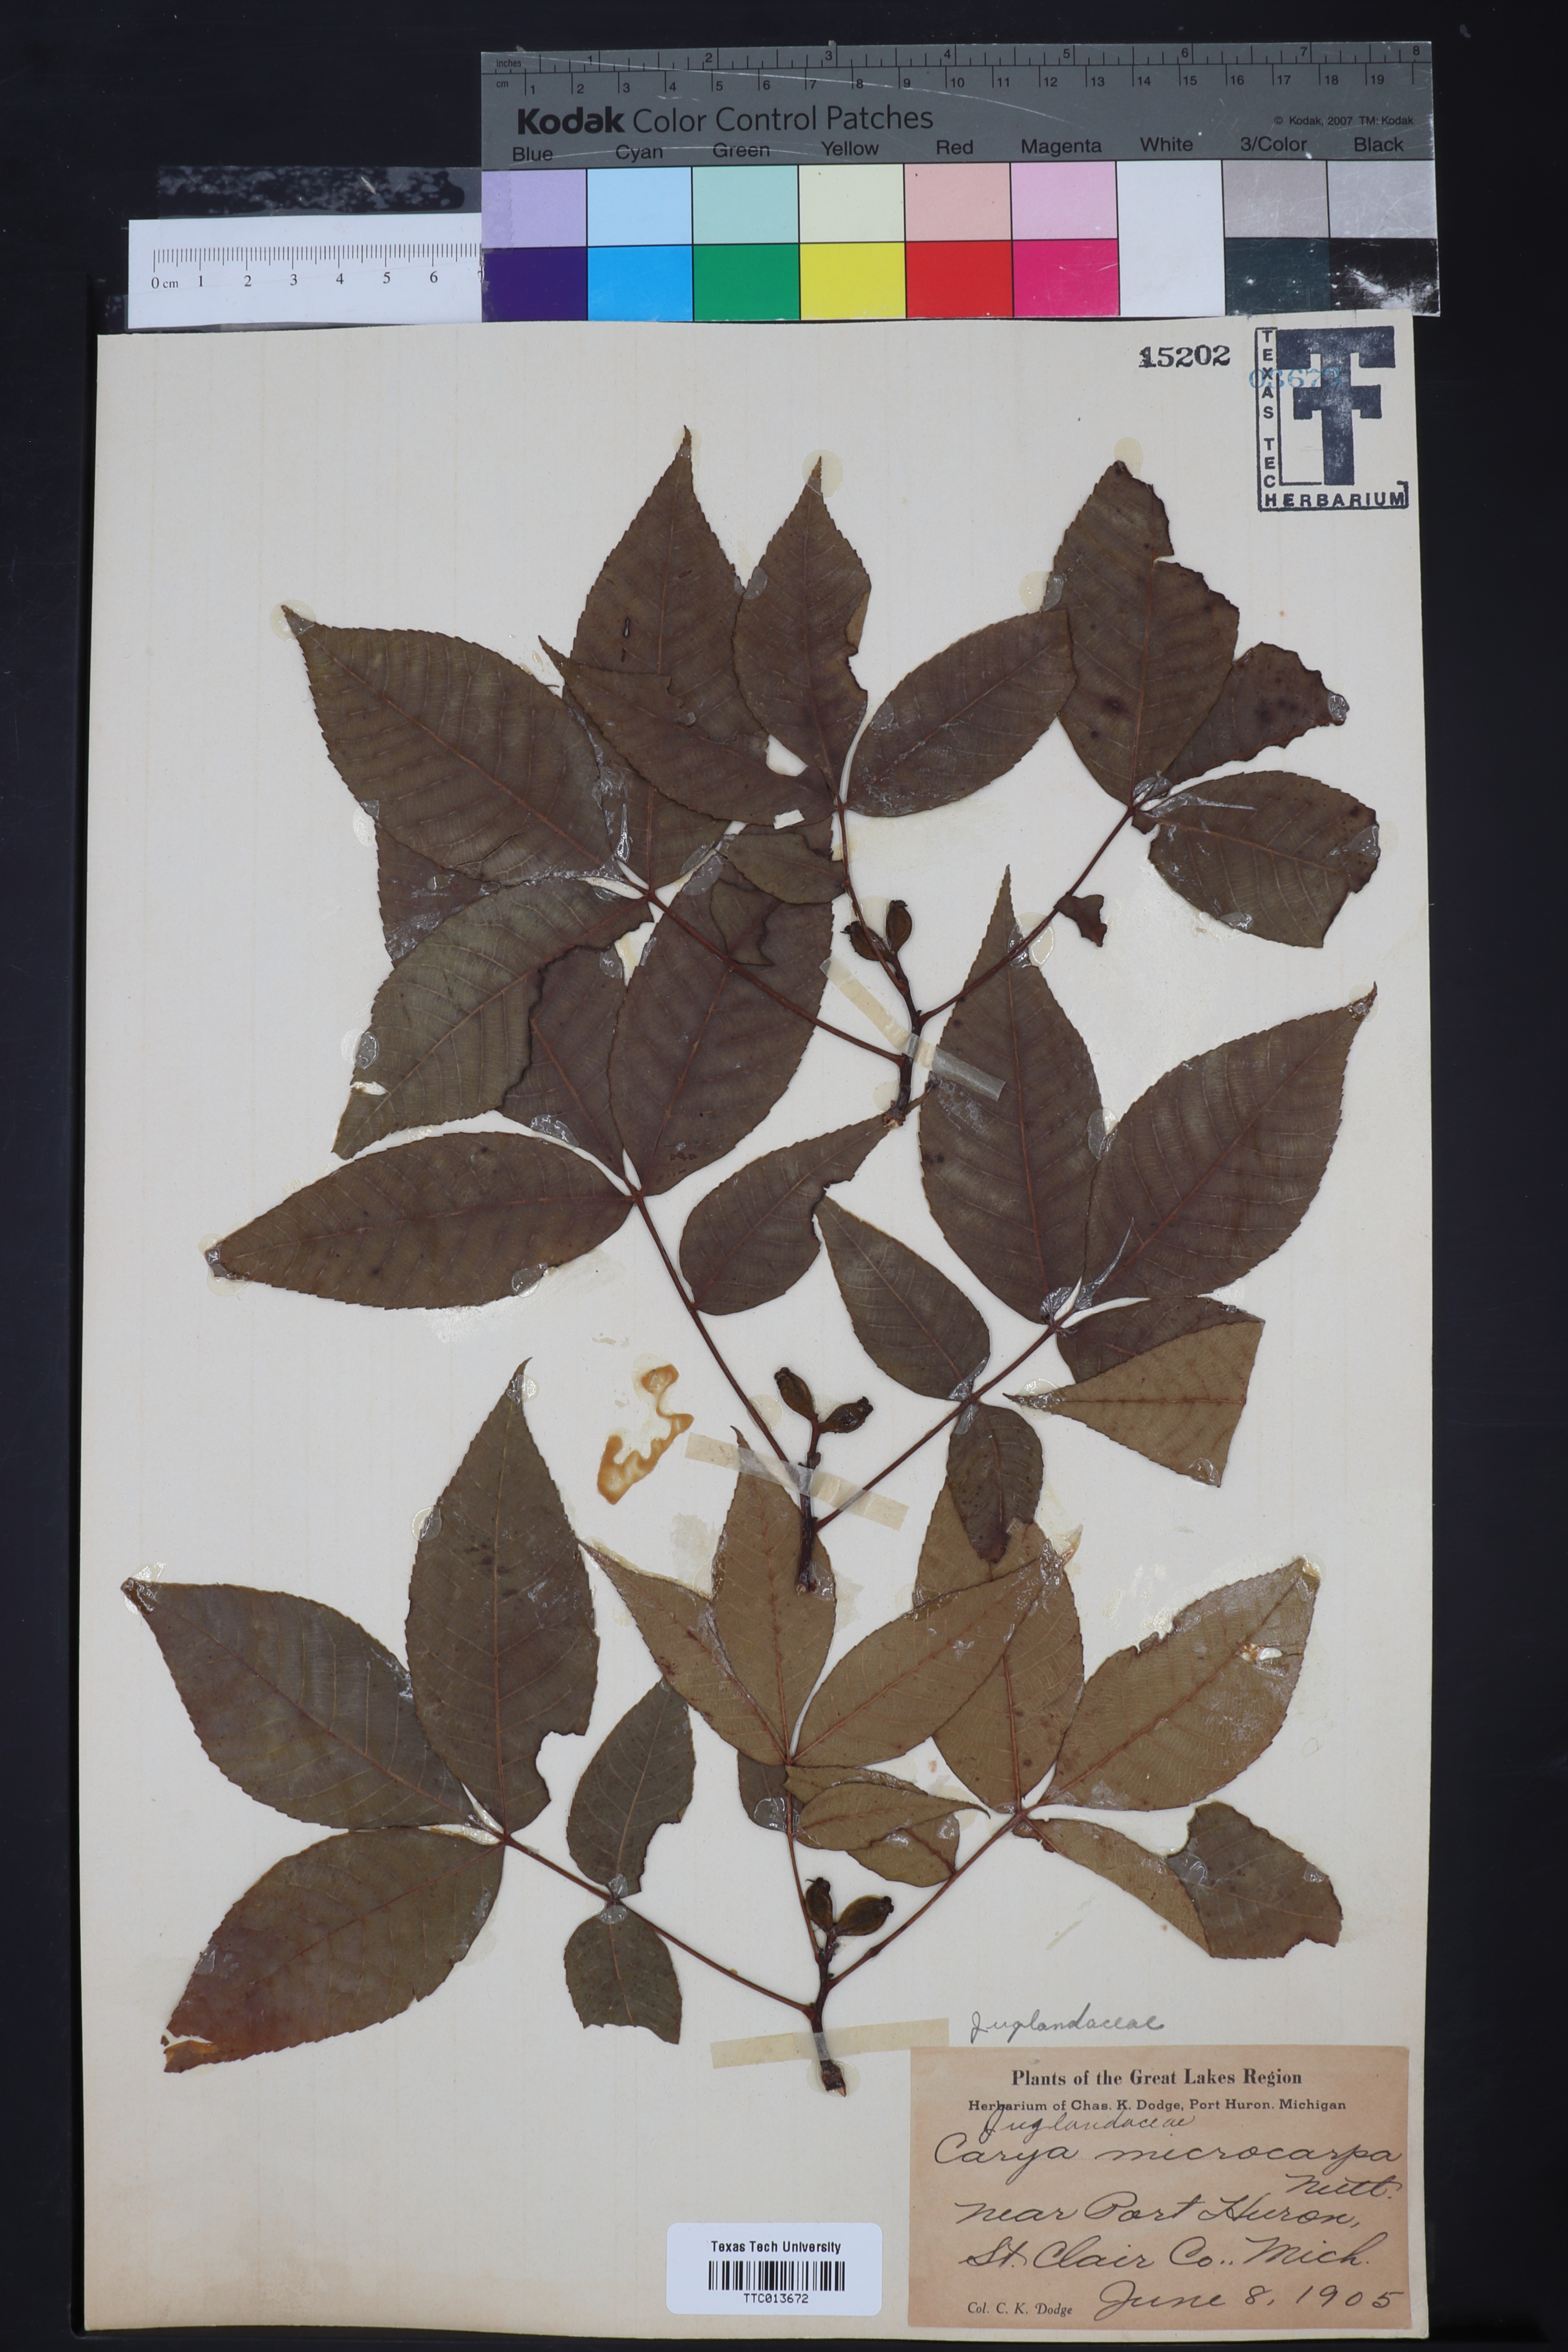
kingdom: Plantae
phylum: Tracheophyta
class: Magnoliopsida
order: Fagales
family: Juglandaceae
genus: Carya
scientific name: Carya glabra
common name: Pignut hickory
